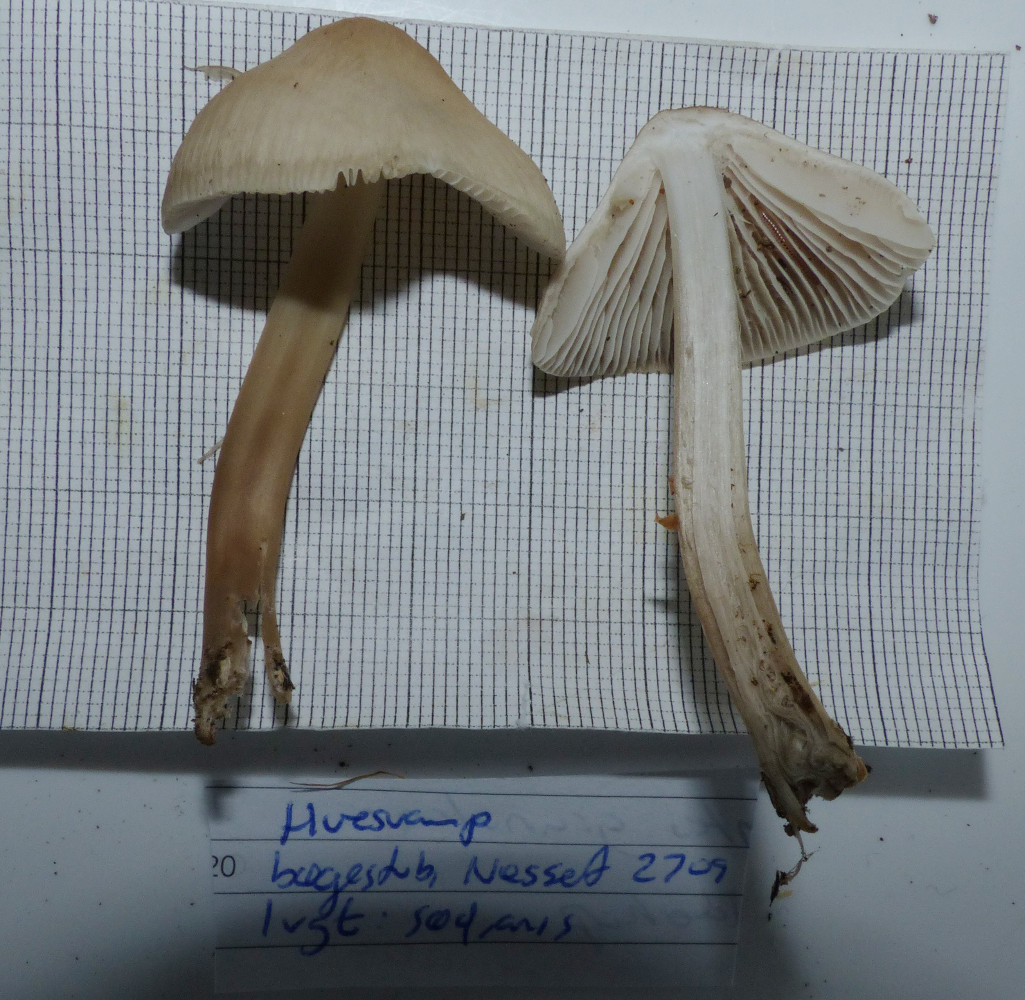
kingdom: Fungi
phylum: Basidiomycota
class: Agaricomycetes
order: Agaricales
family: Mycenaceae
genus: Mycena
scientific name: Mycena galericulata
